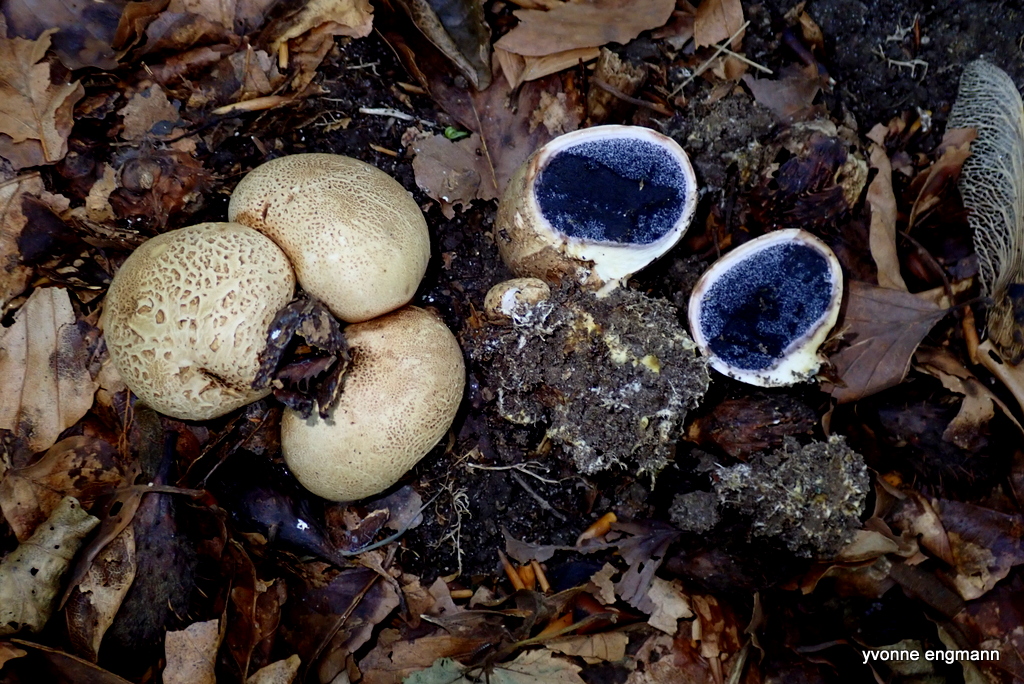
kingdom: Fungi
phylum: Basidiomycota
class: Agaricomycetes
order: Boletales
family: Sclerodermataceae
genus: Scleroderma
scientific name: Scleroderma citrinum
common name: almindelig bruskbold
